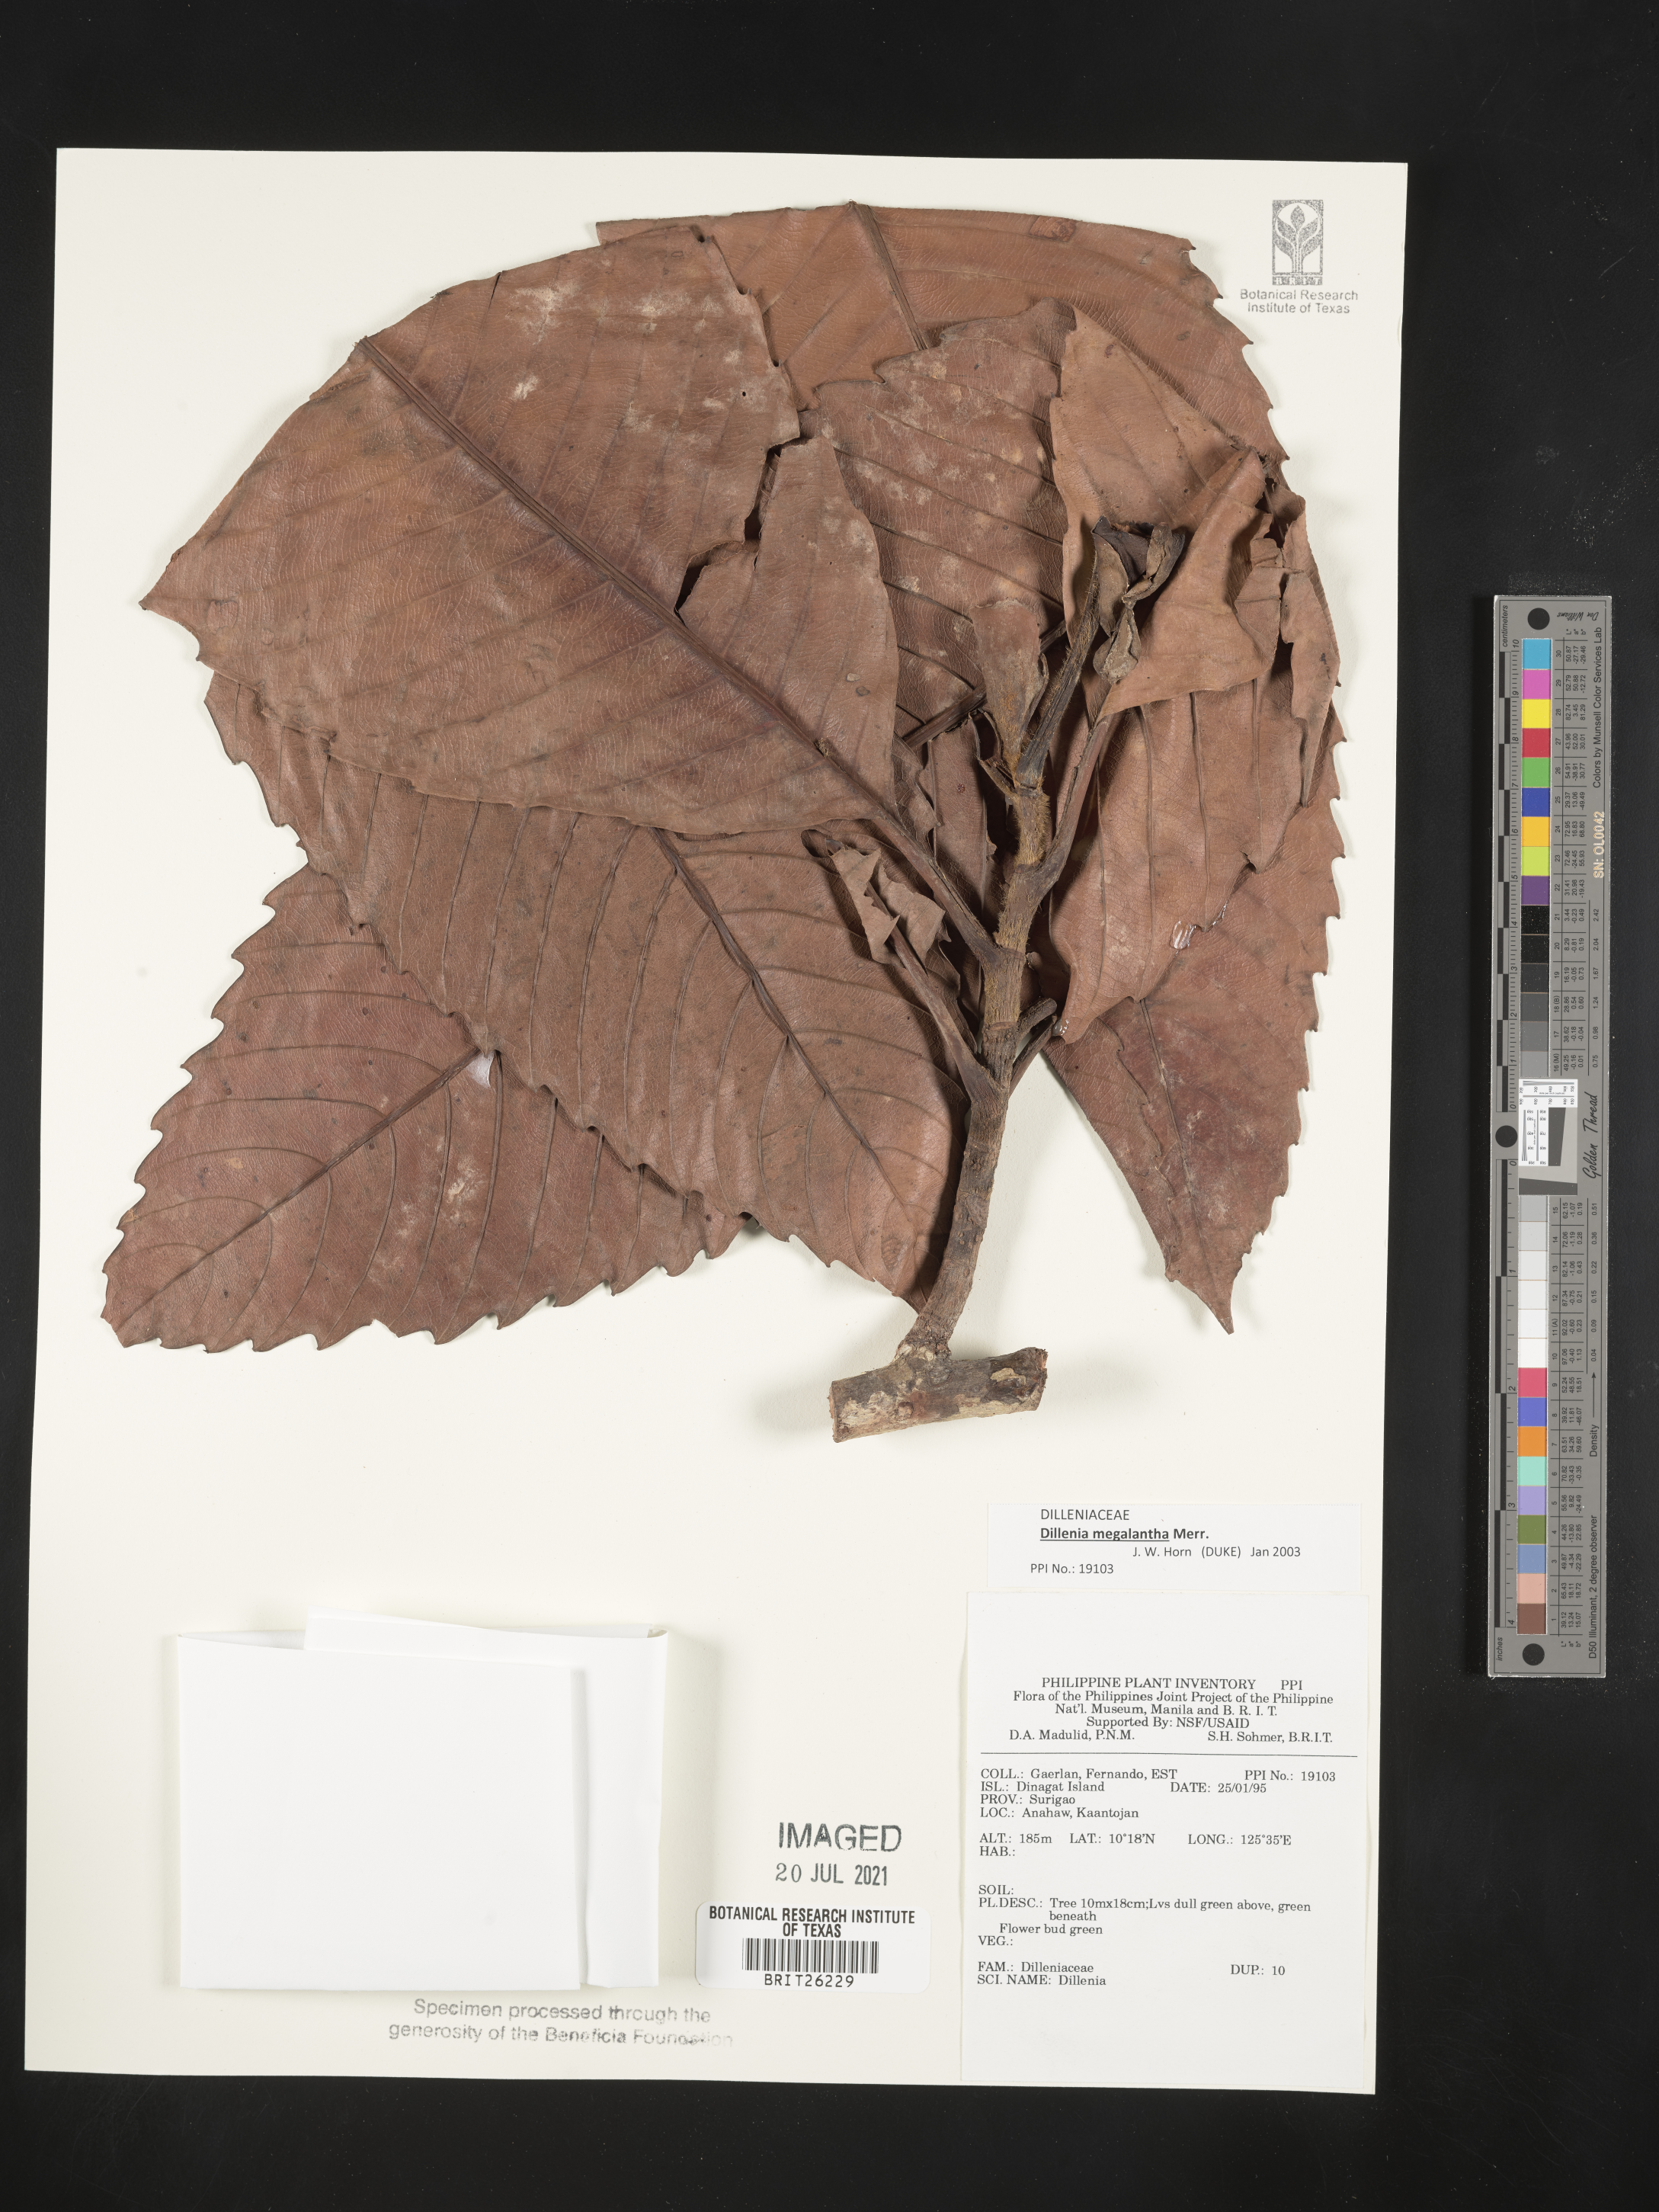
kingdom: Plantae
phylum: Tracheophyta
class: Magnoliopsida
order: Dilleniales
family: Dilleniaceae
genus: Dillenia
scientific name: Dillenia
